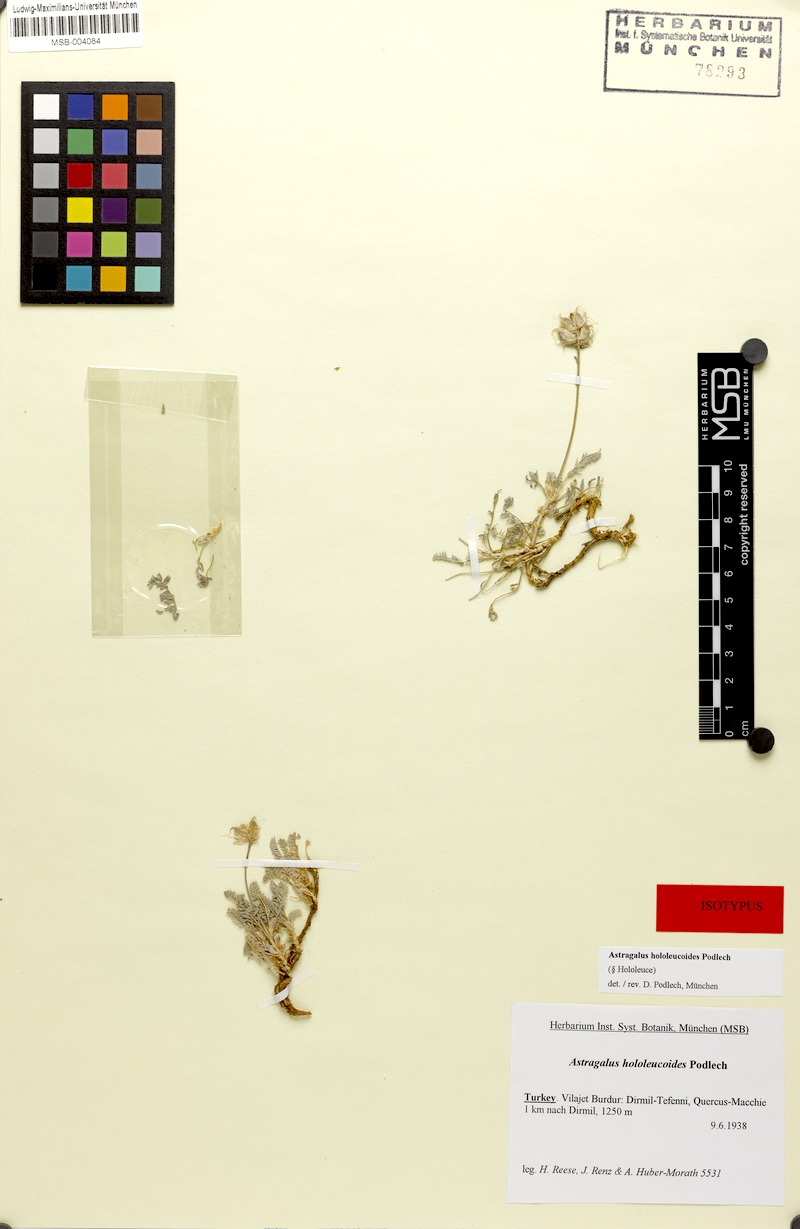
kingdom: Plantae
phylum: Tracheophyta
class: Magnoliopsida
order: Fabales
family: Fabaceae
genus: Astragalus
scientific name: Astragalus lycius
